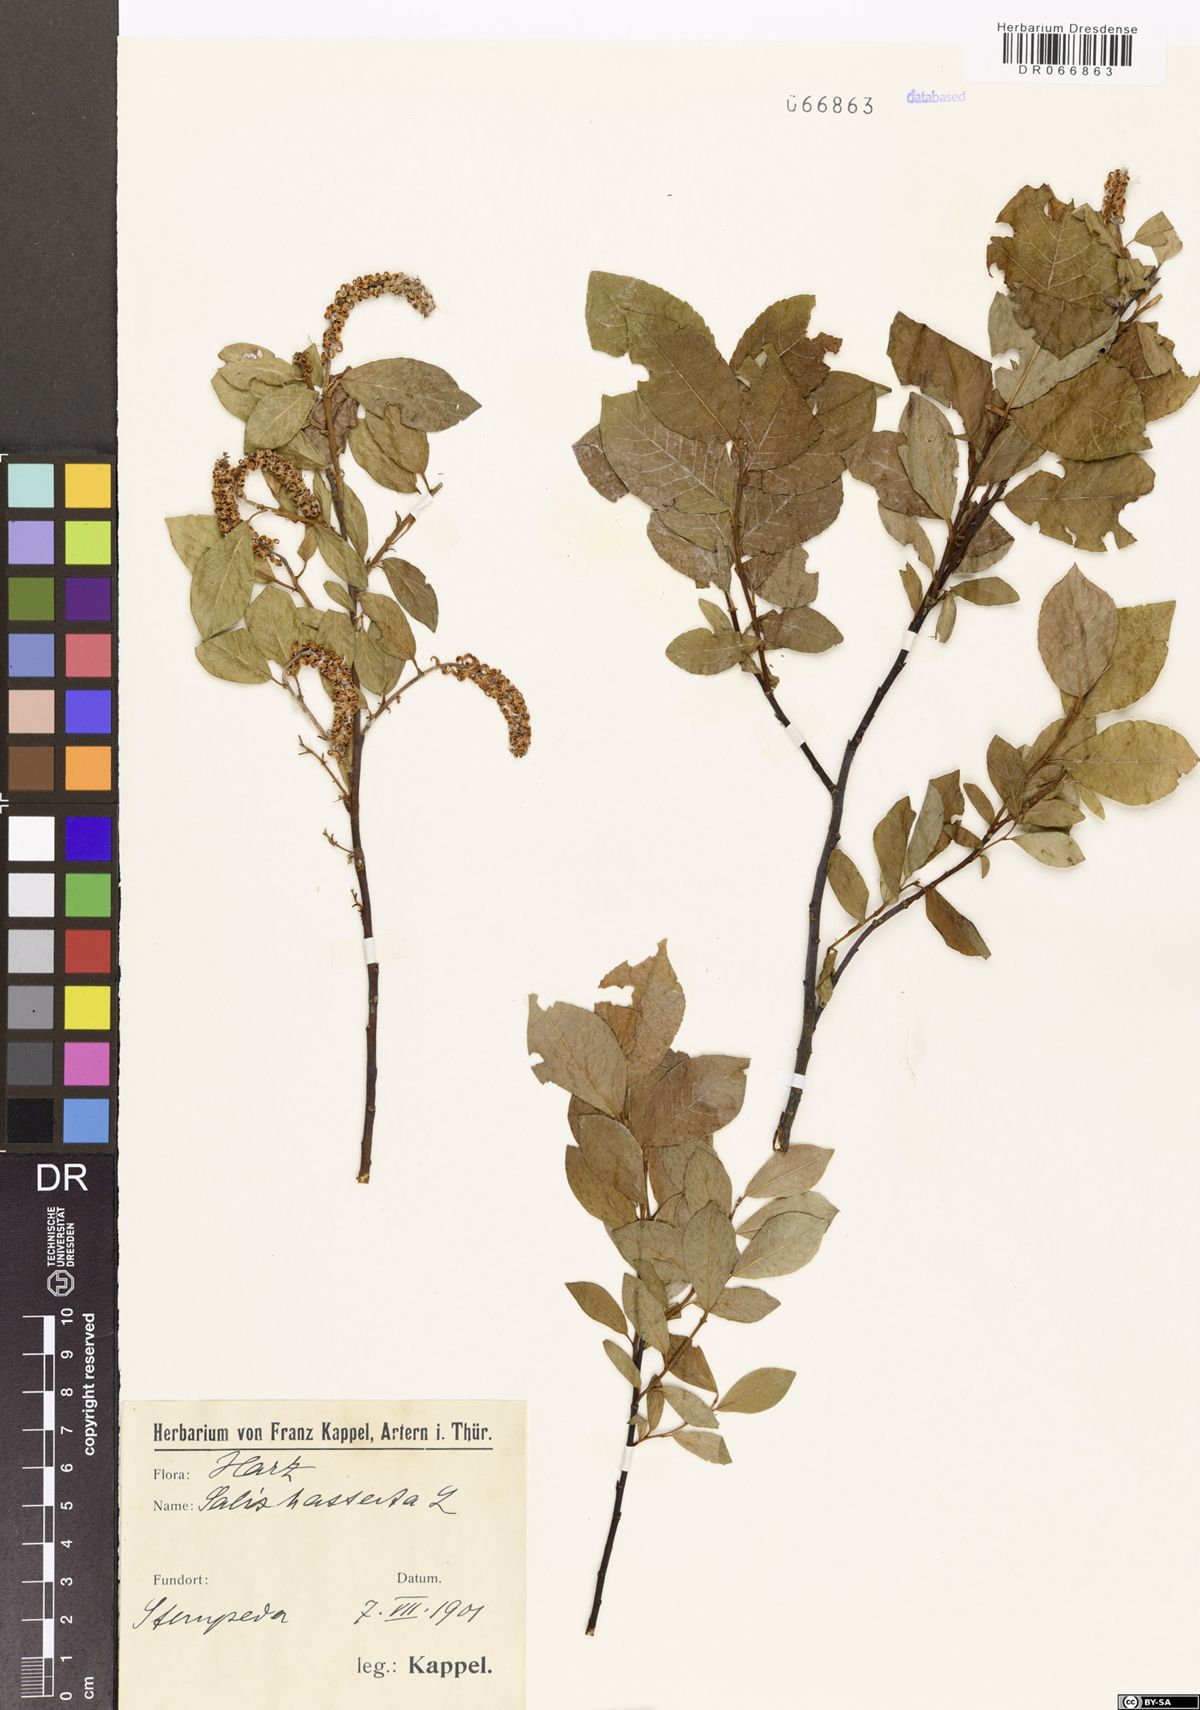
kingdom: Plantae
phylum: Tracheophyta
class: Magnoliopsida
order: Malpighiales
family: Salicaceae
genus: Salix
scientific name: Salix hastata
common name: Halberd willow
